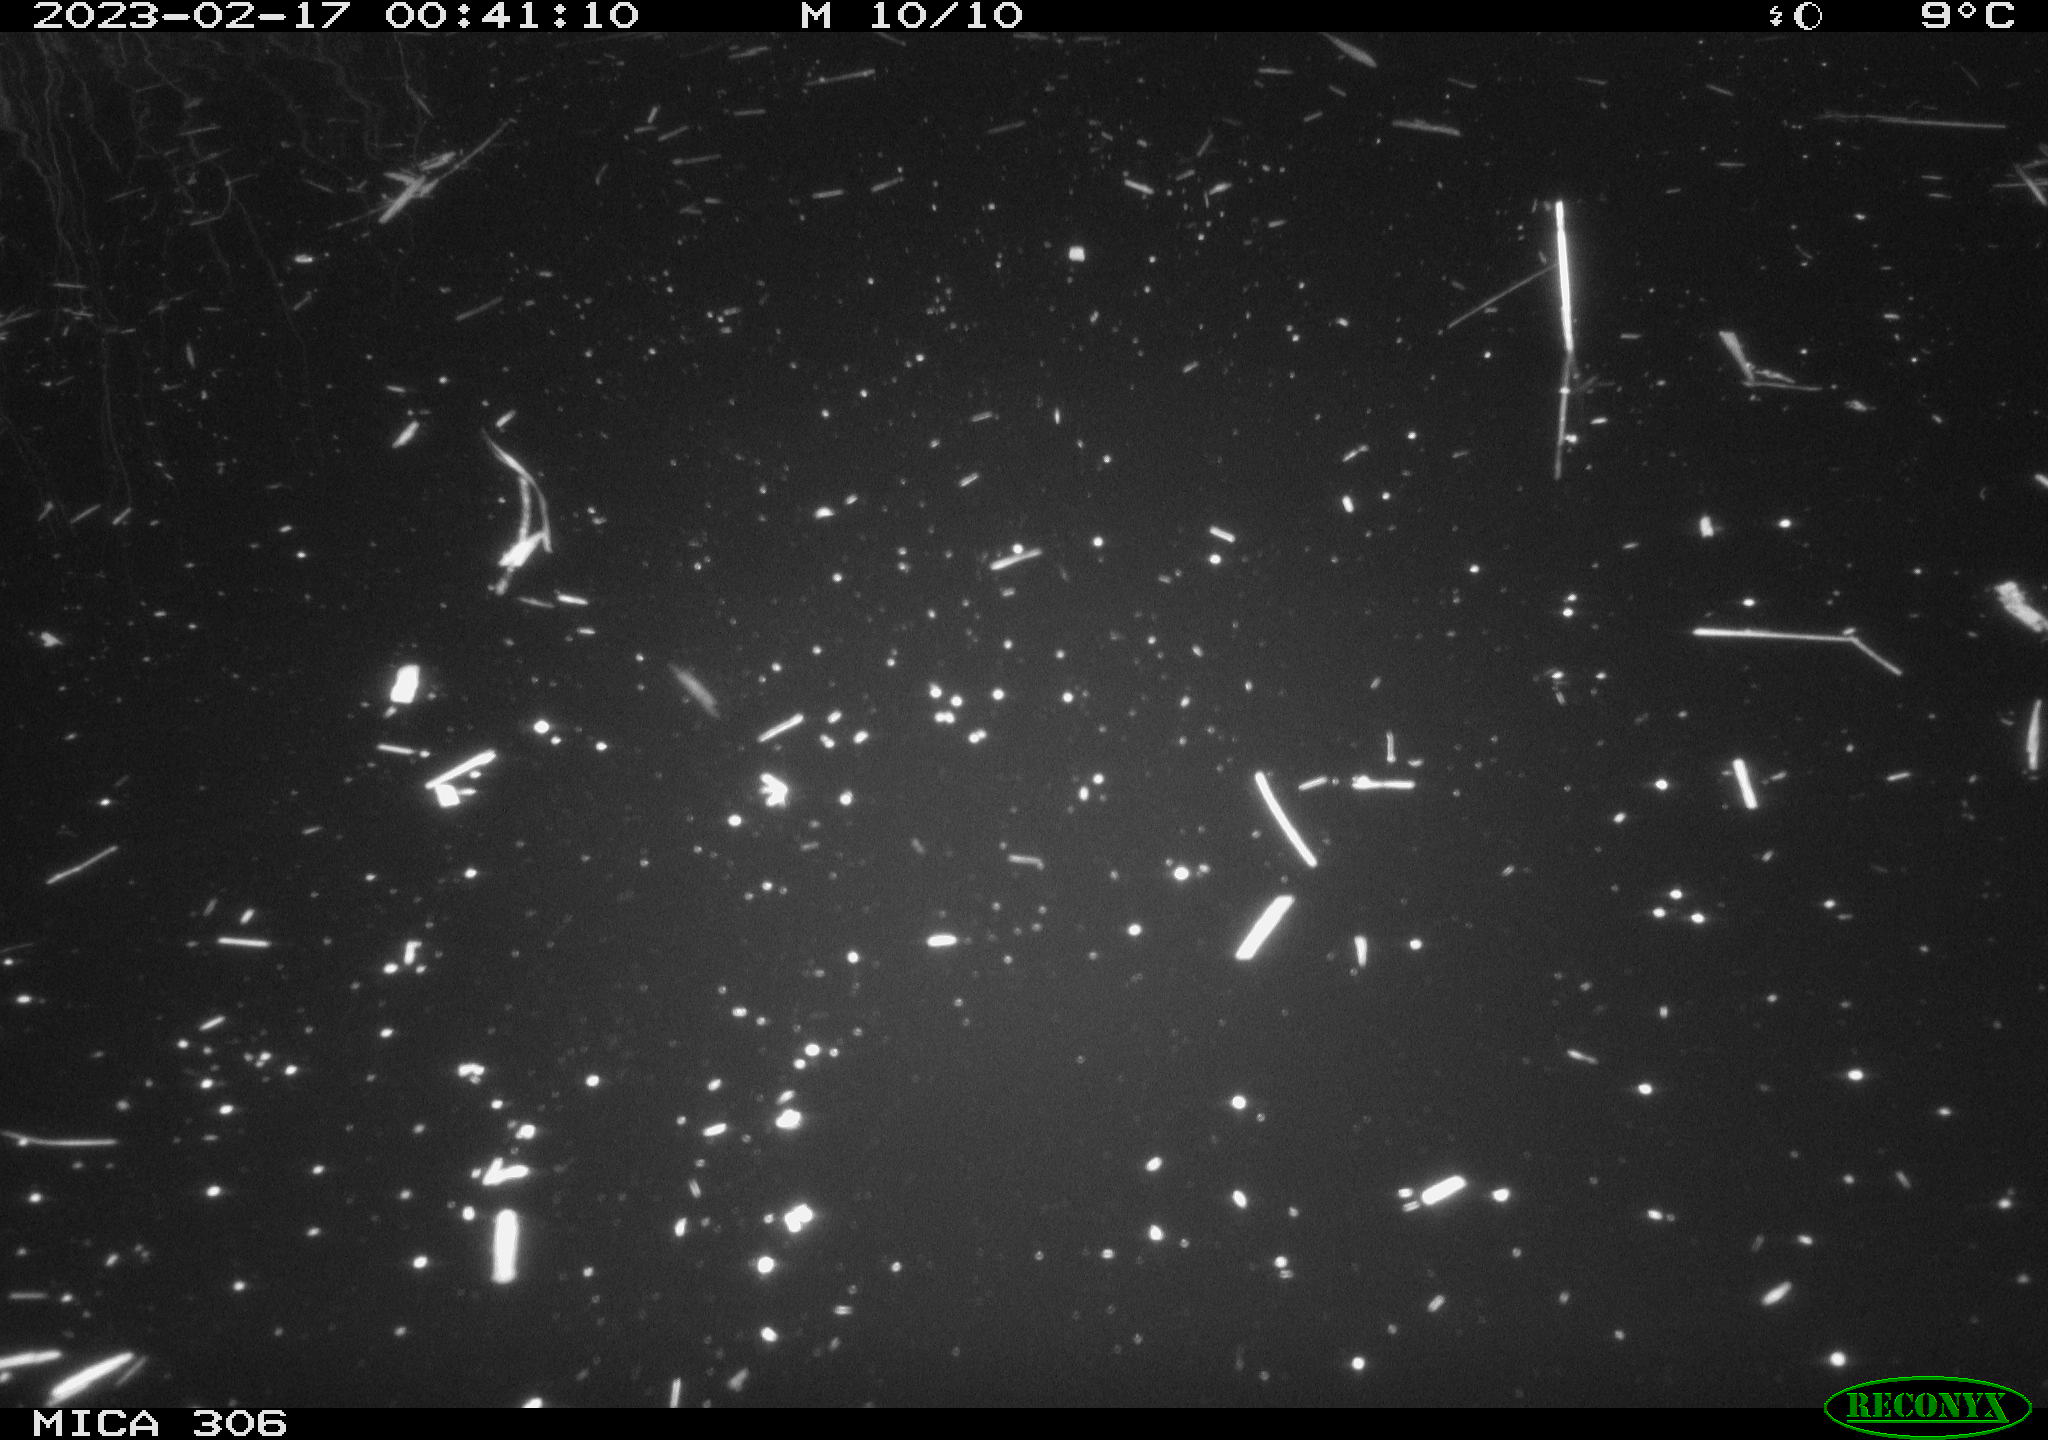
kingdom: Animalia
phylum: Chordata
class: Mammalia
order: Rodentia
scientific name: Rodentia
